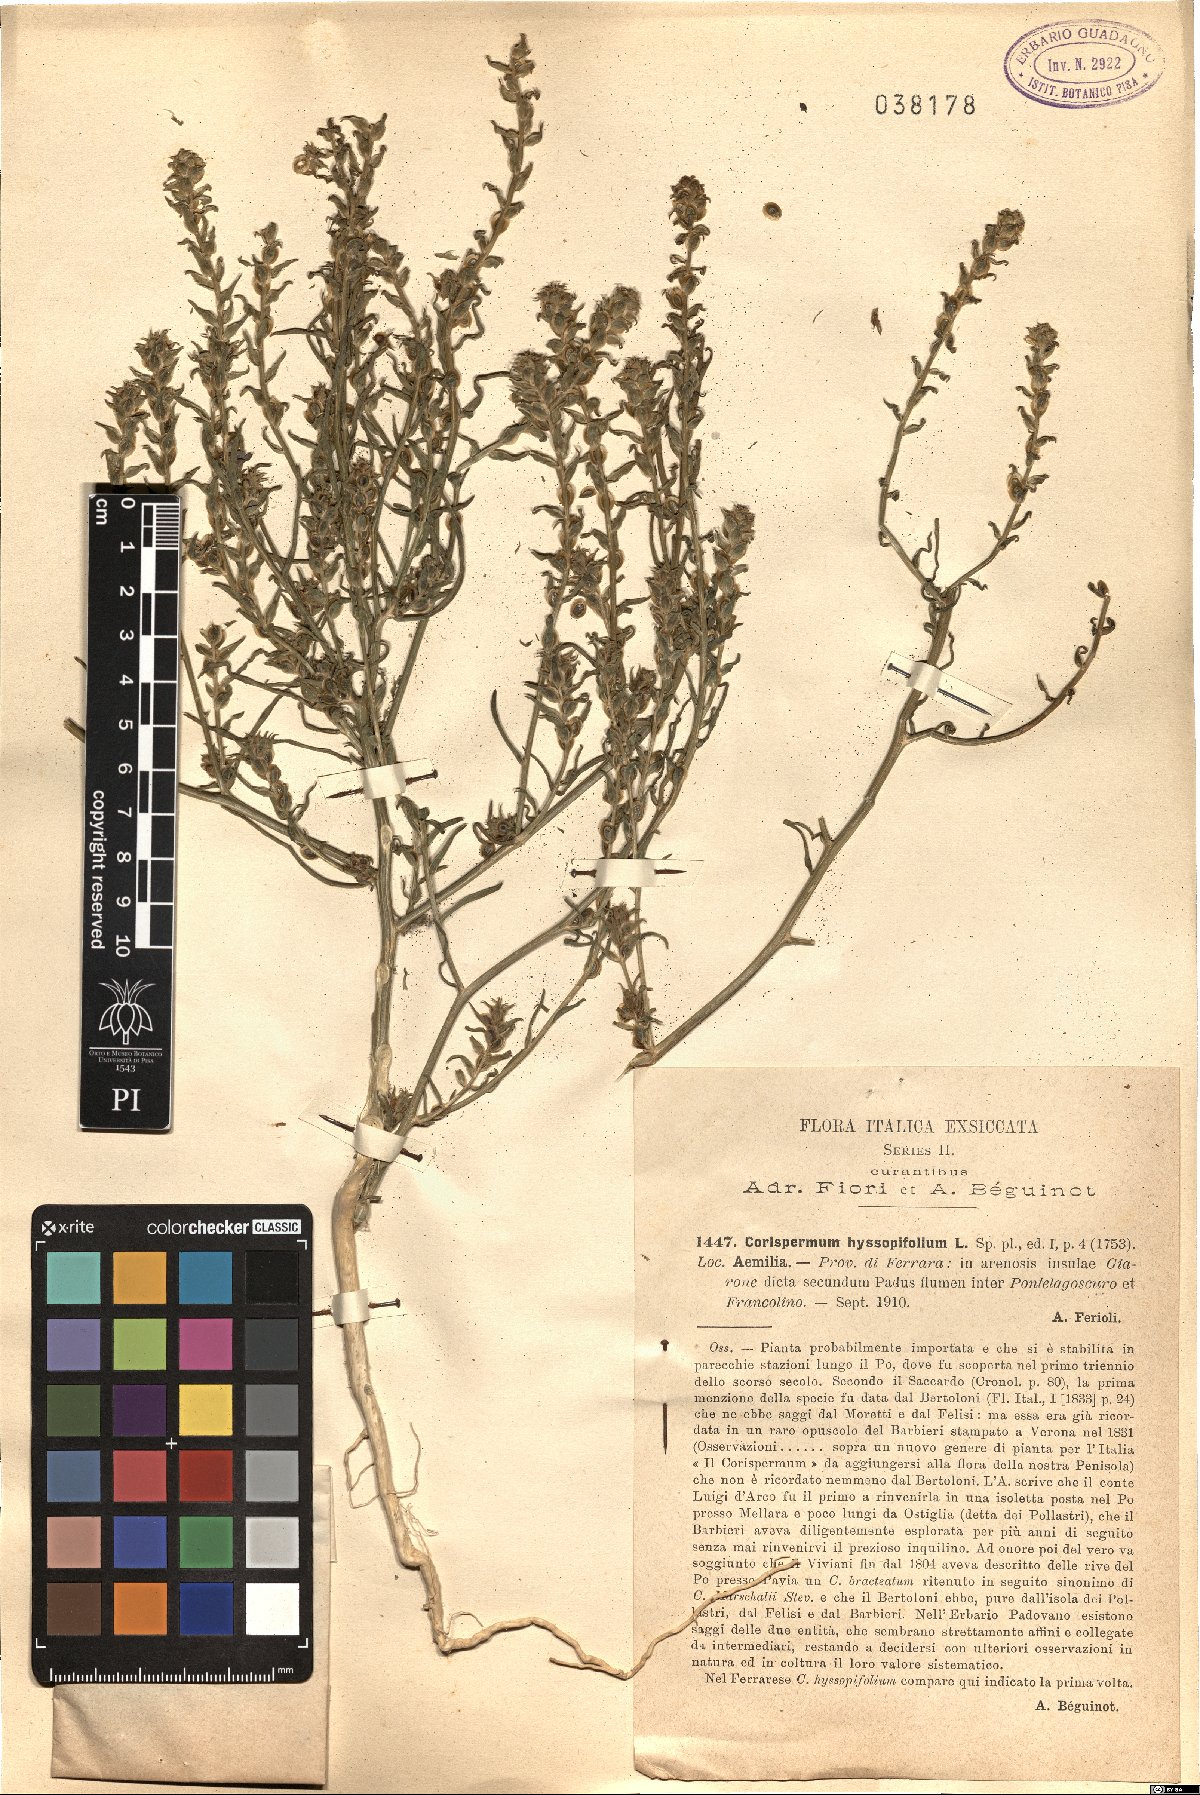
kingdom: Plantae
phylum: Tracheophyta
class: Magnoliopsida
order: Caryophyllales
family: Amaranthaceae
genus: Corispermum
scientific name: Corispermum hyssopifolium
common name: Bugseed
